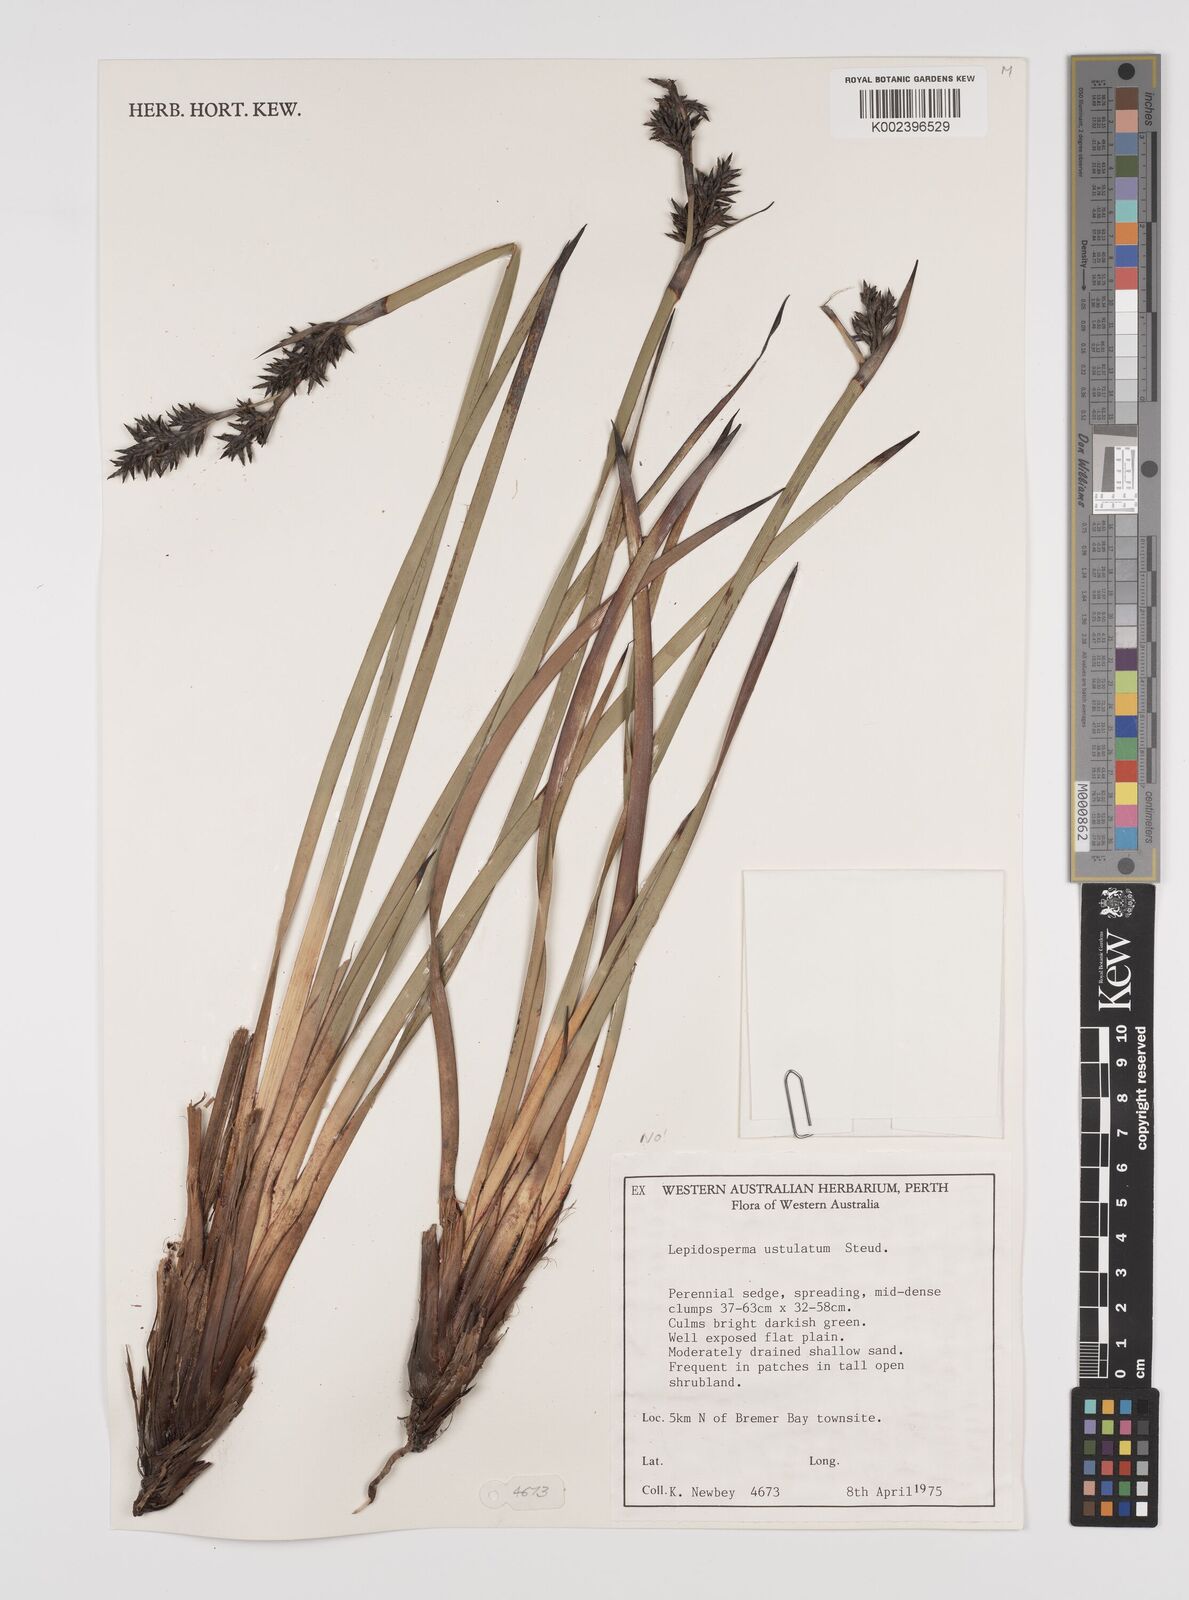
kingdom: Plantae
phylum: Tracheophyta
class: Liliopsida
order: Poales
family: Cyperaceae
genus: Lepidosperma
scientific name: Lepidosperma ustulatum
